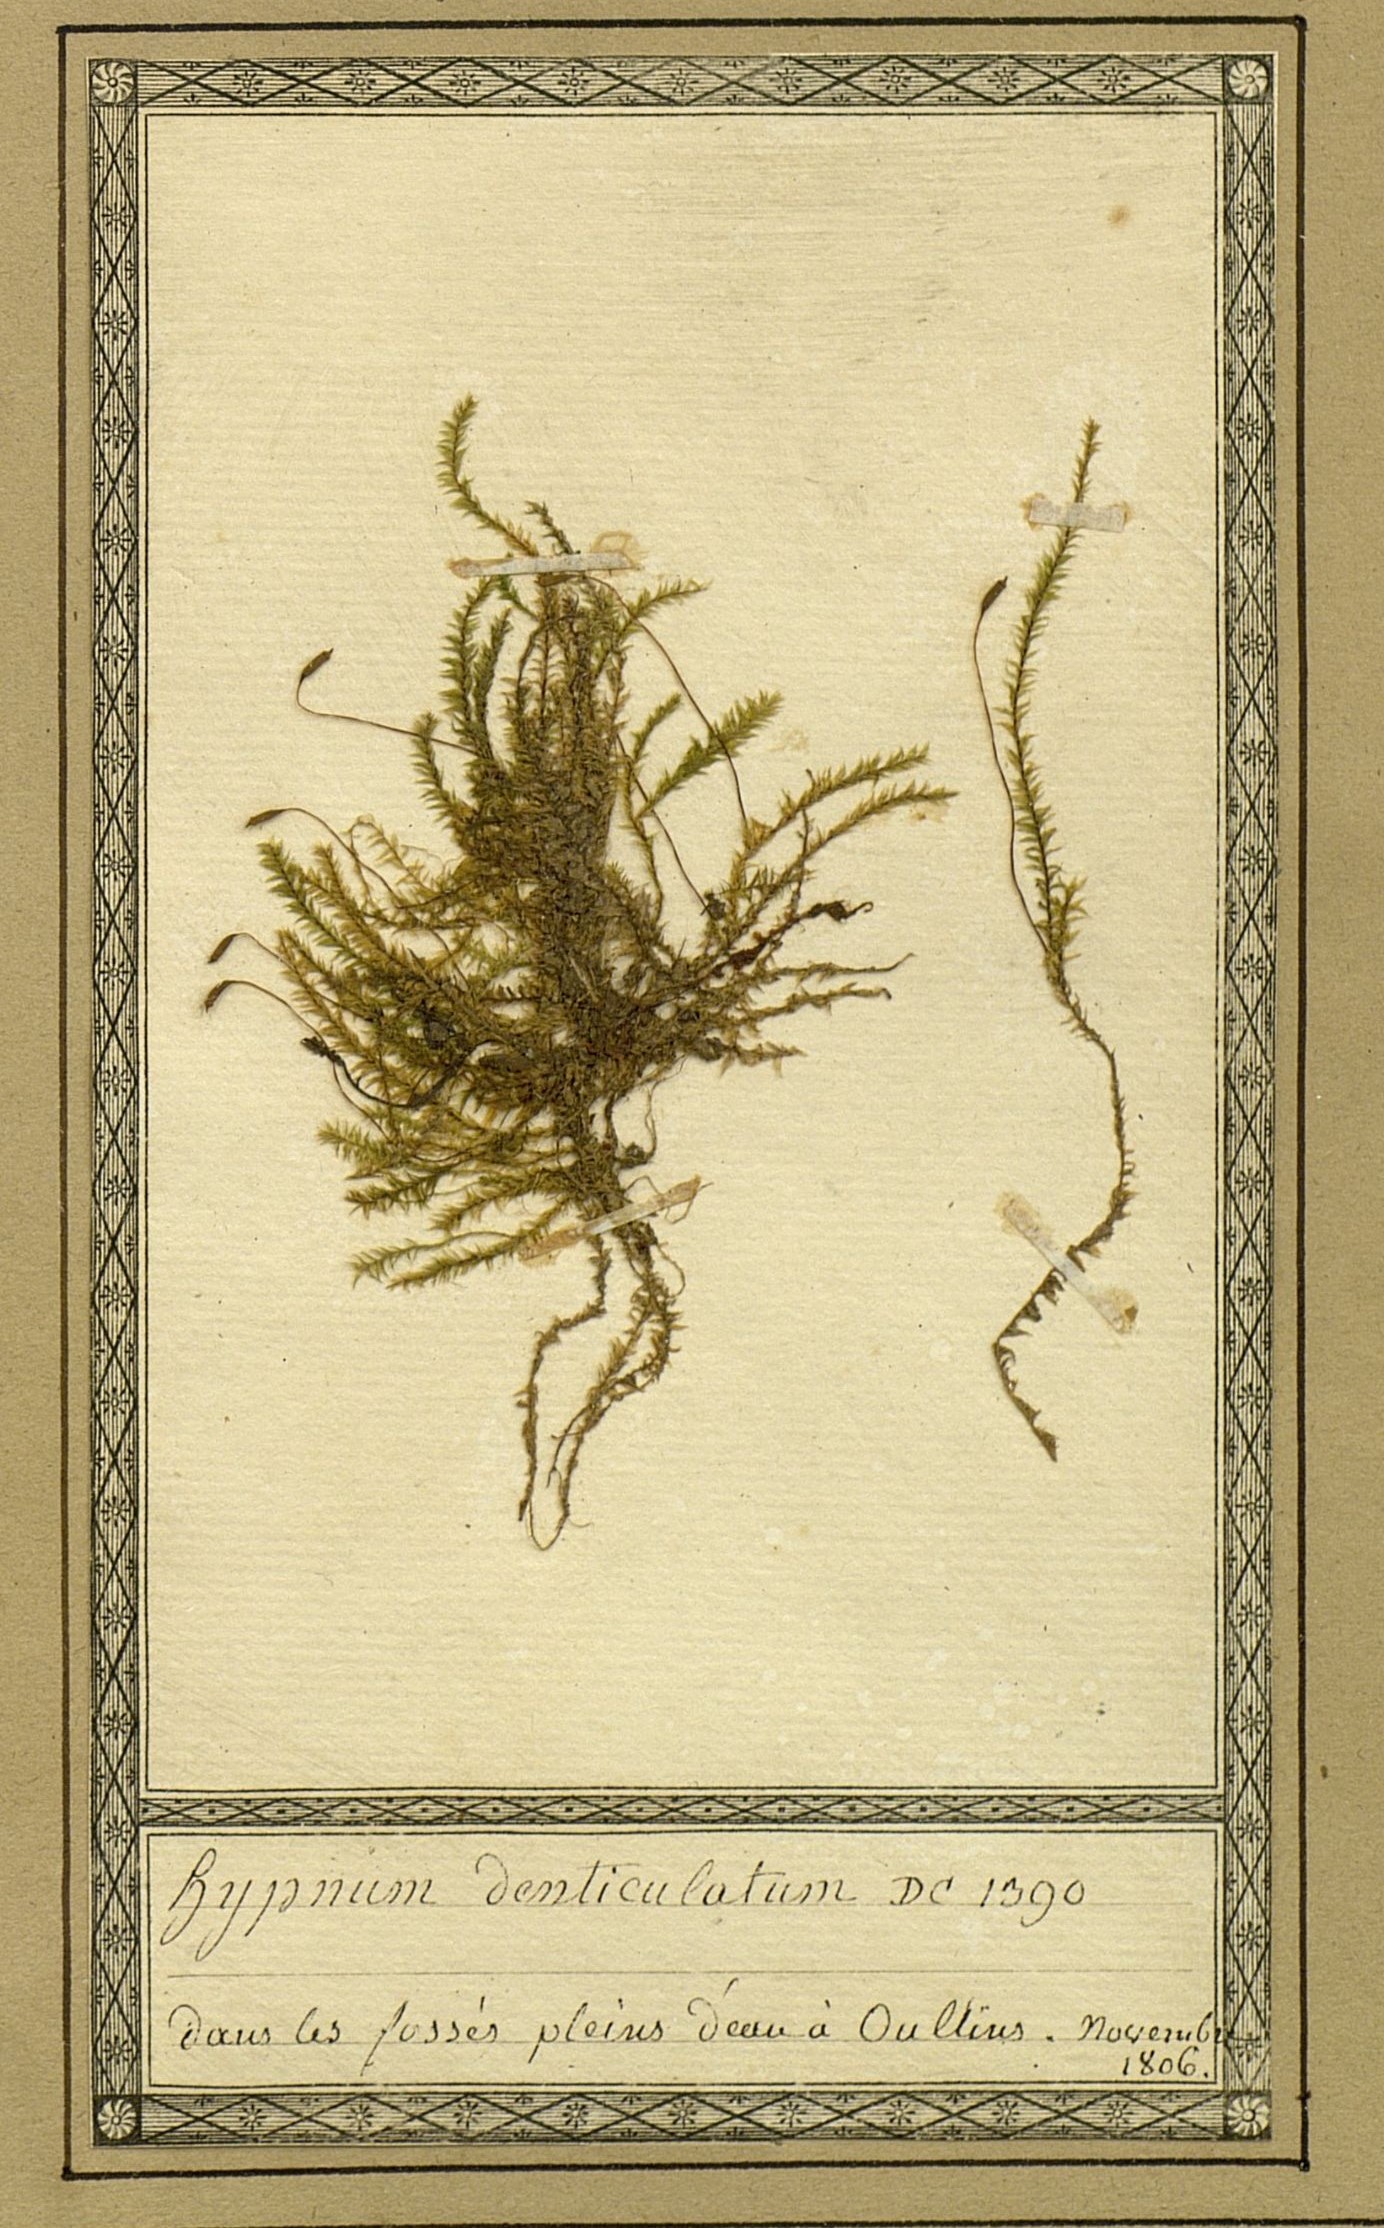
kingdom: Plantae
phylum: Bryophyta
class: Bryopsida
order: Hypnales
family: Plagiotheciaceae
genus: Plagiothecium
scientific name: Plagiothecium denticulatum
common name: Dented silk moss
